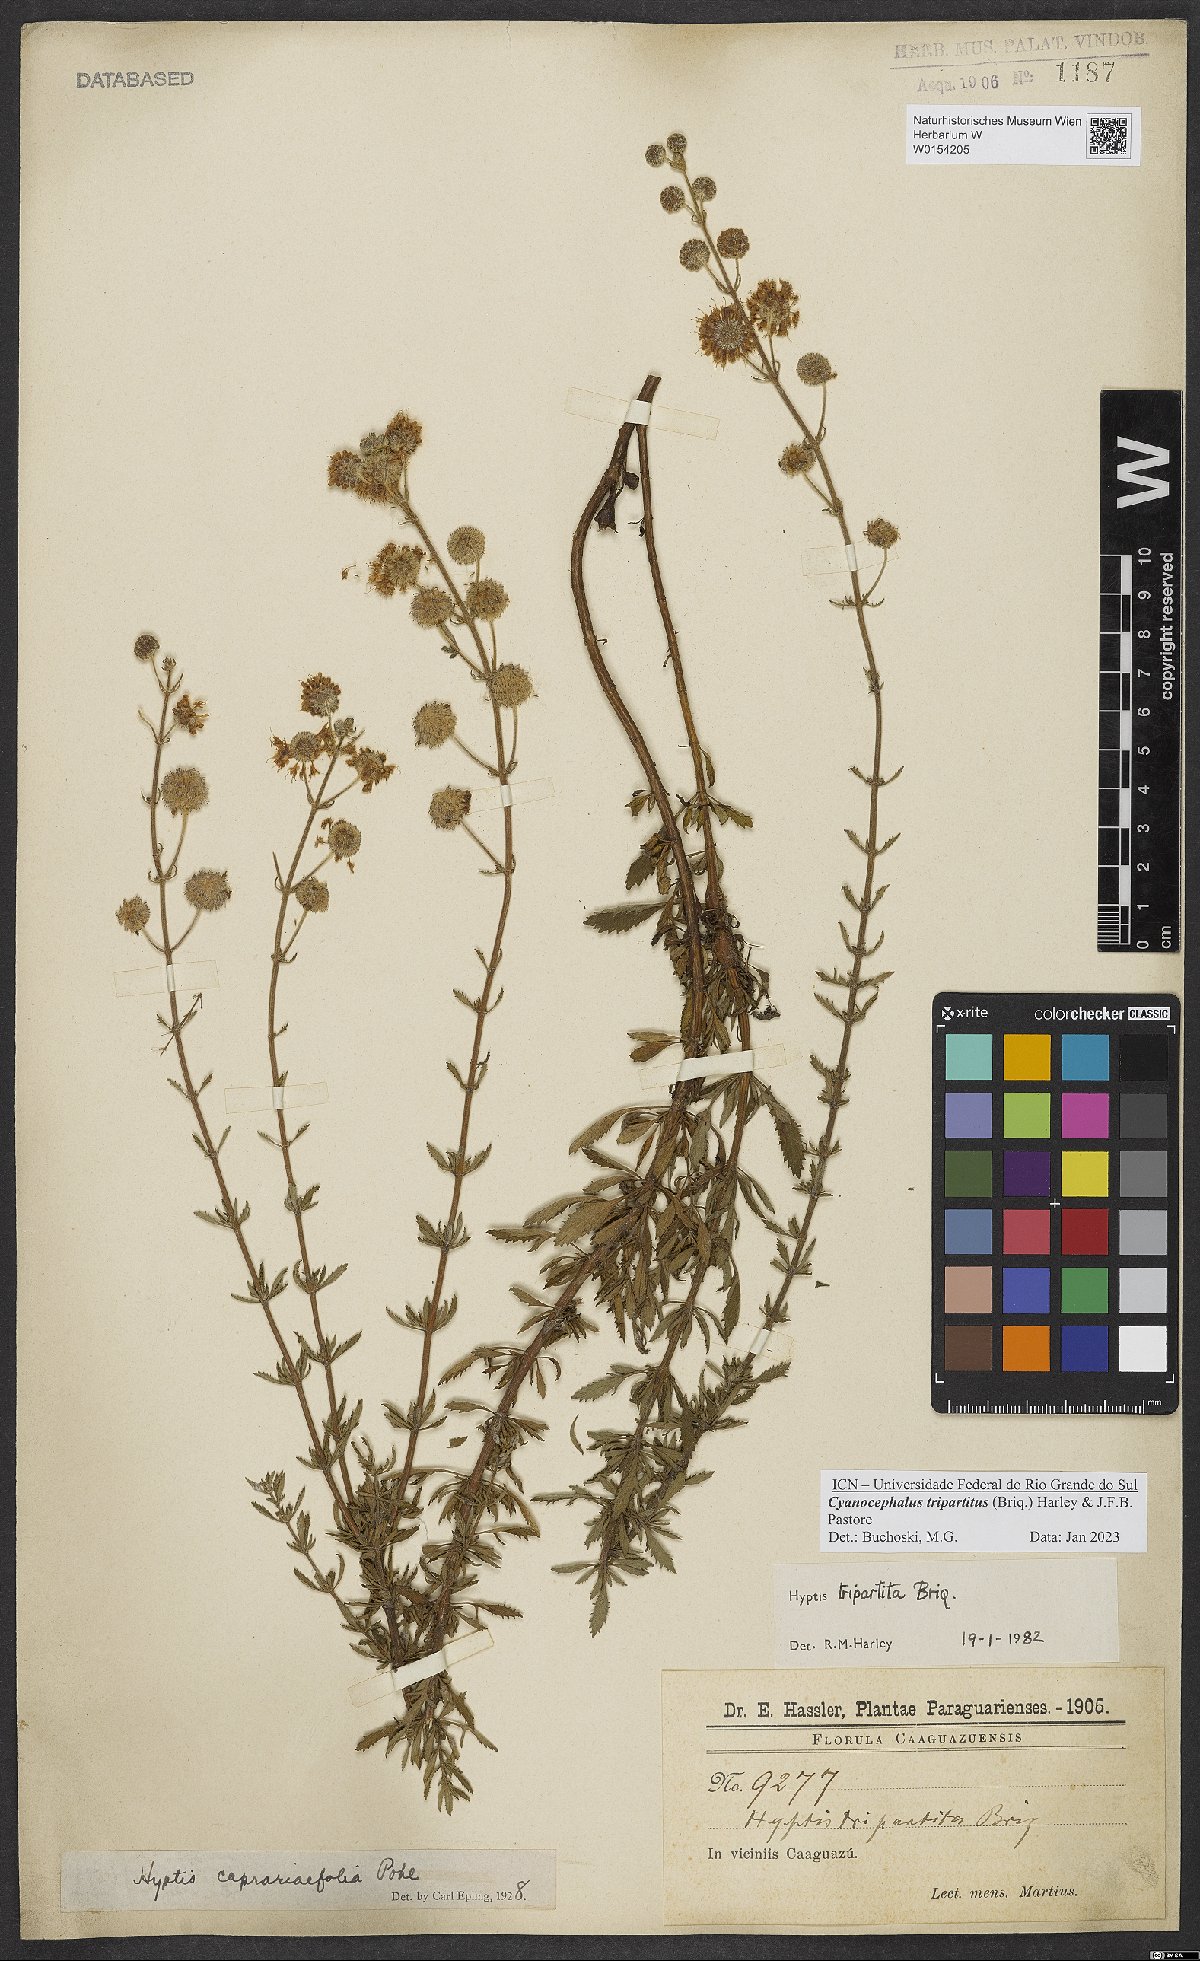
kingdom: Plantae
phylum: Tracheophyta
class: Magnoliopsida
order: Lamiales
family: Lamiaceae
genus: Cyanocephalus
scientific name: Cyanocephalus tripartitus
